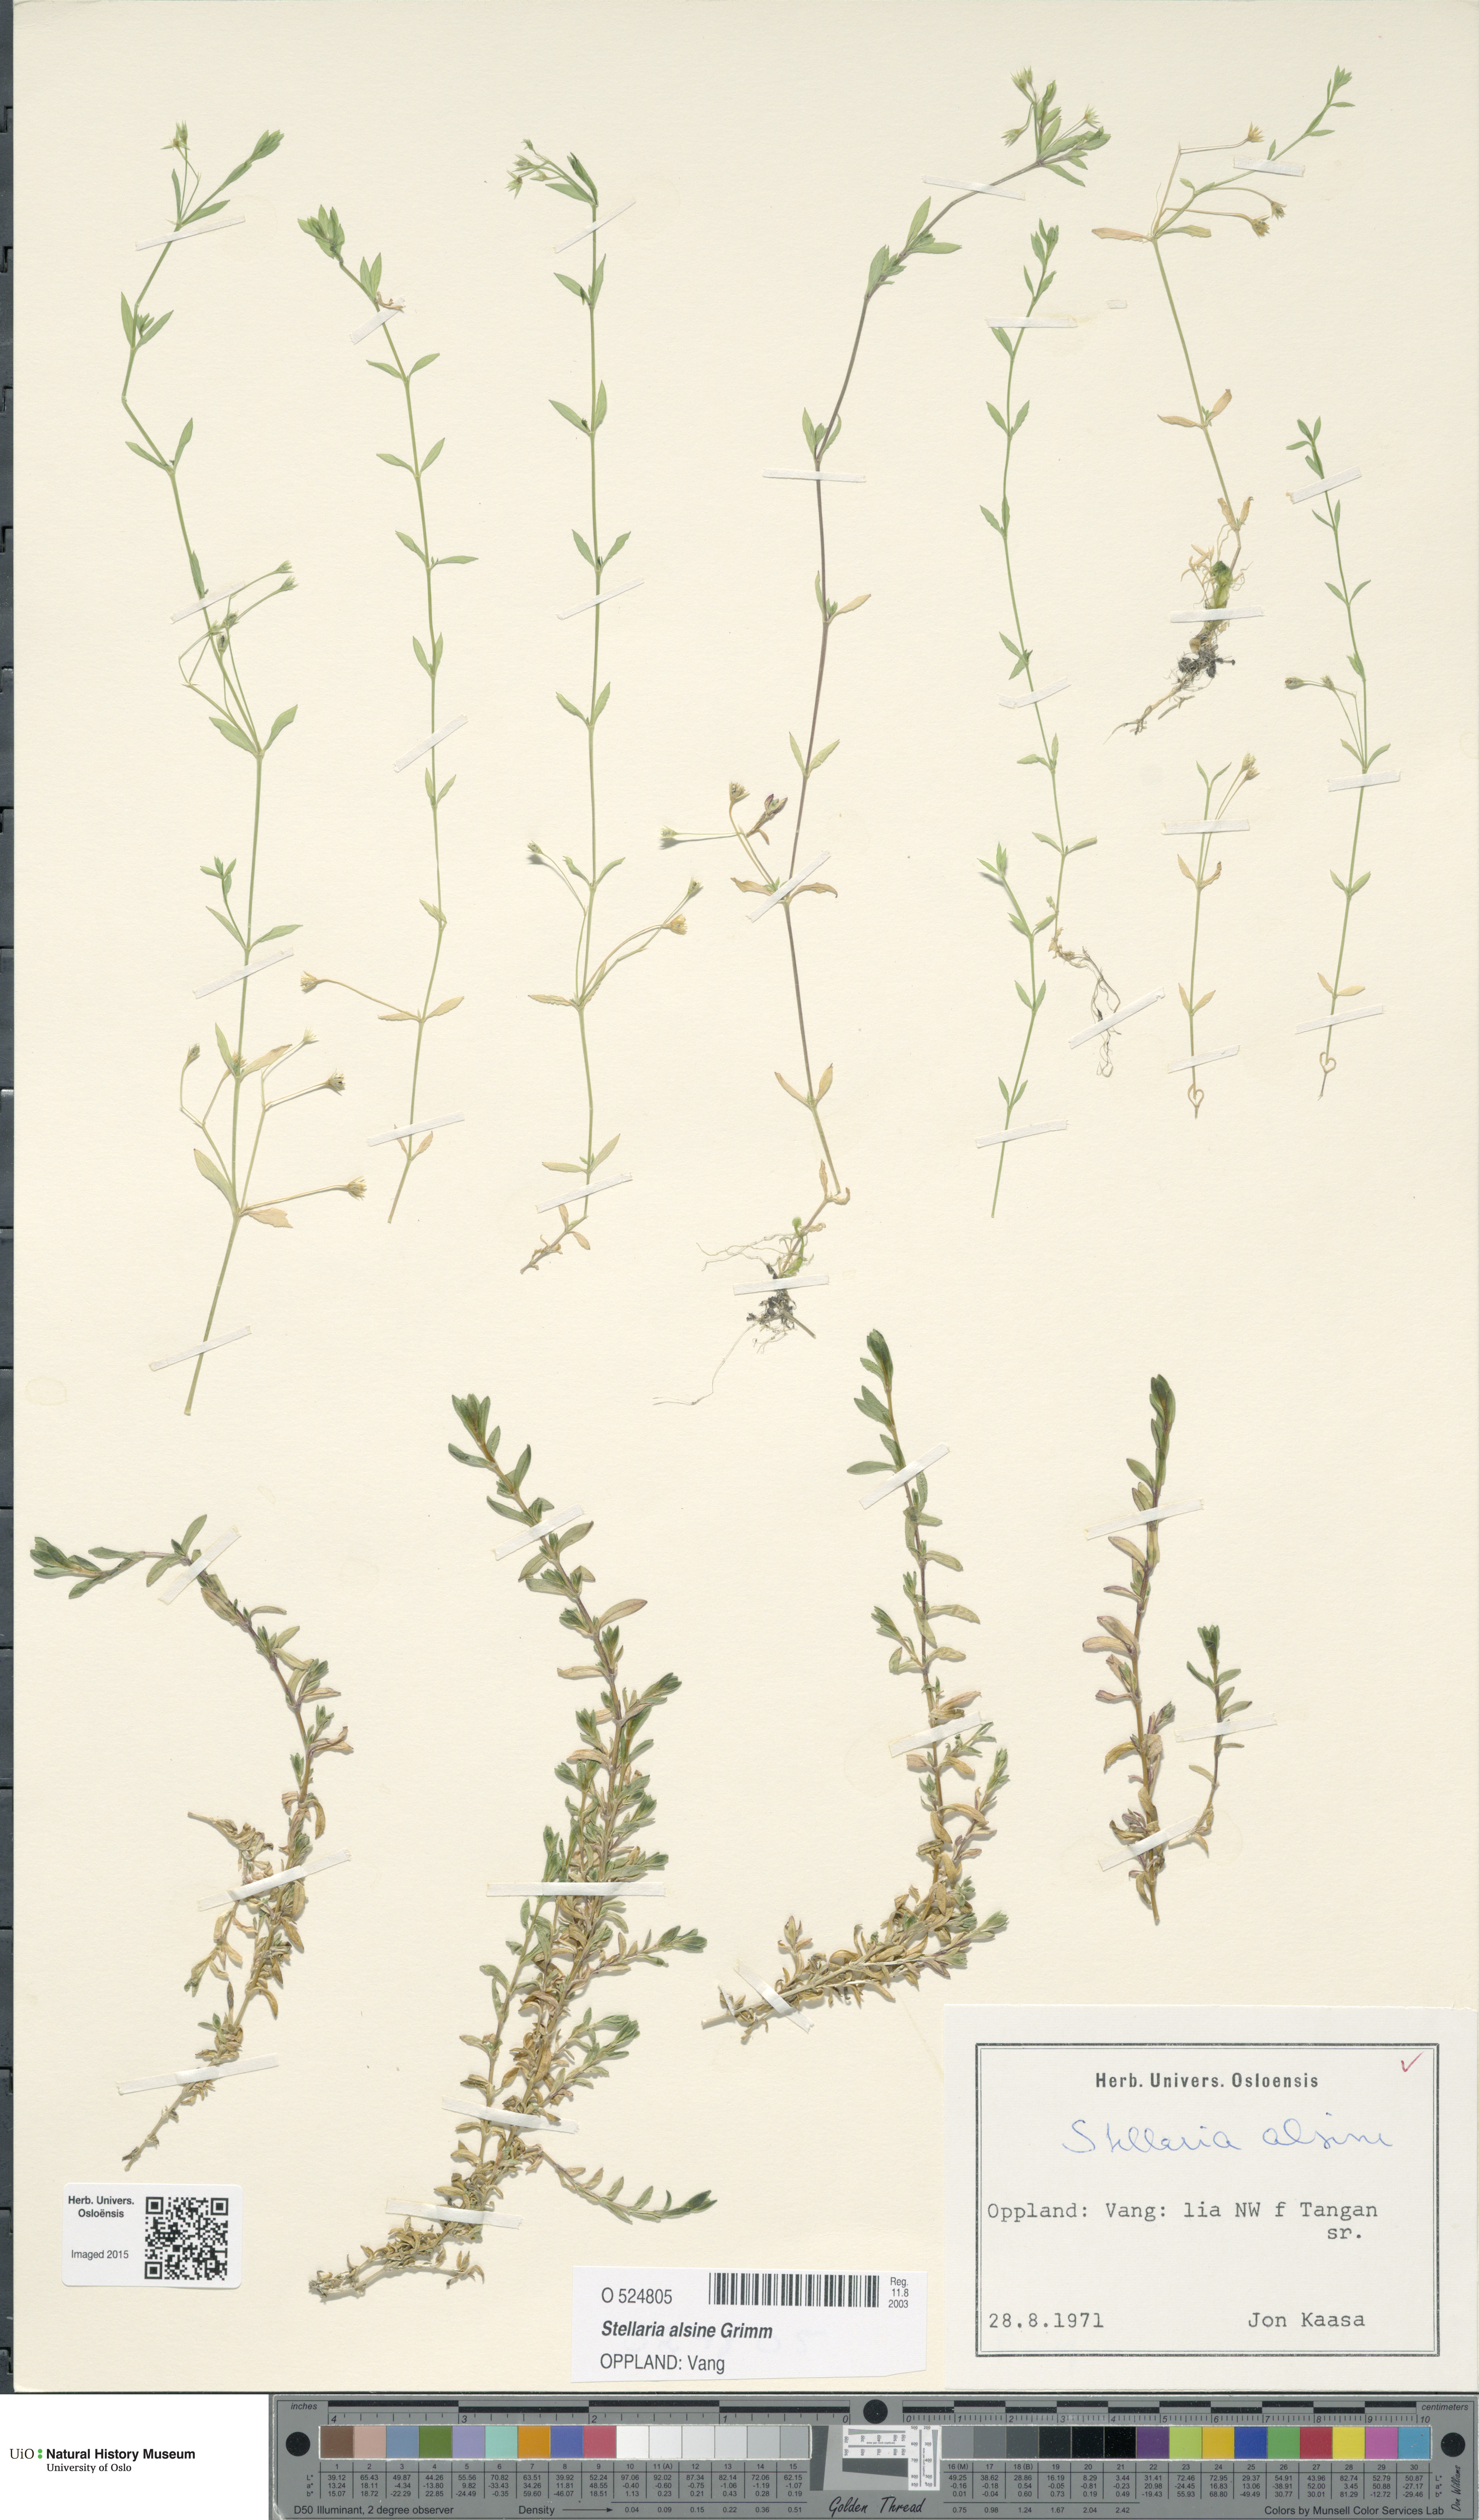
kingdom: Plantae
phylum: Tracheophyta
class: Magnoliopsida
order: Caryophyllales
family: Caryophyllaceae
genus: Stellaria
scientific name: Stellaria alsine
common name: Bog stitchwort
